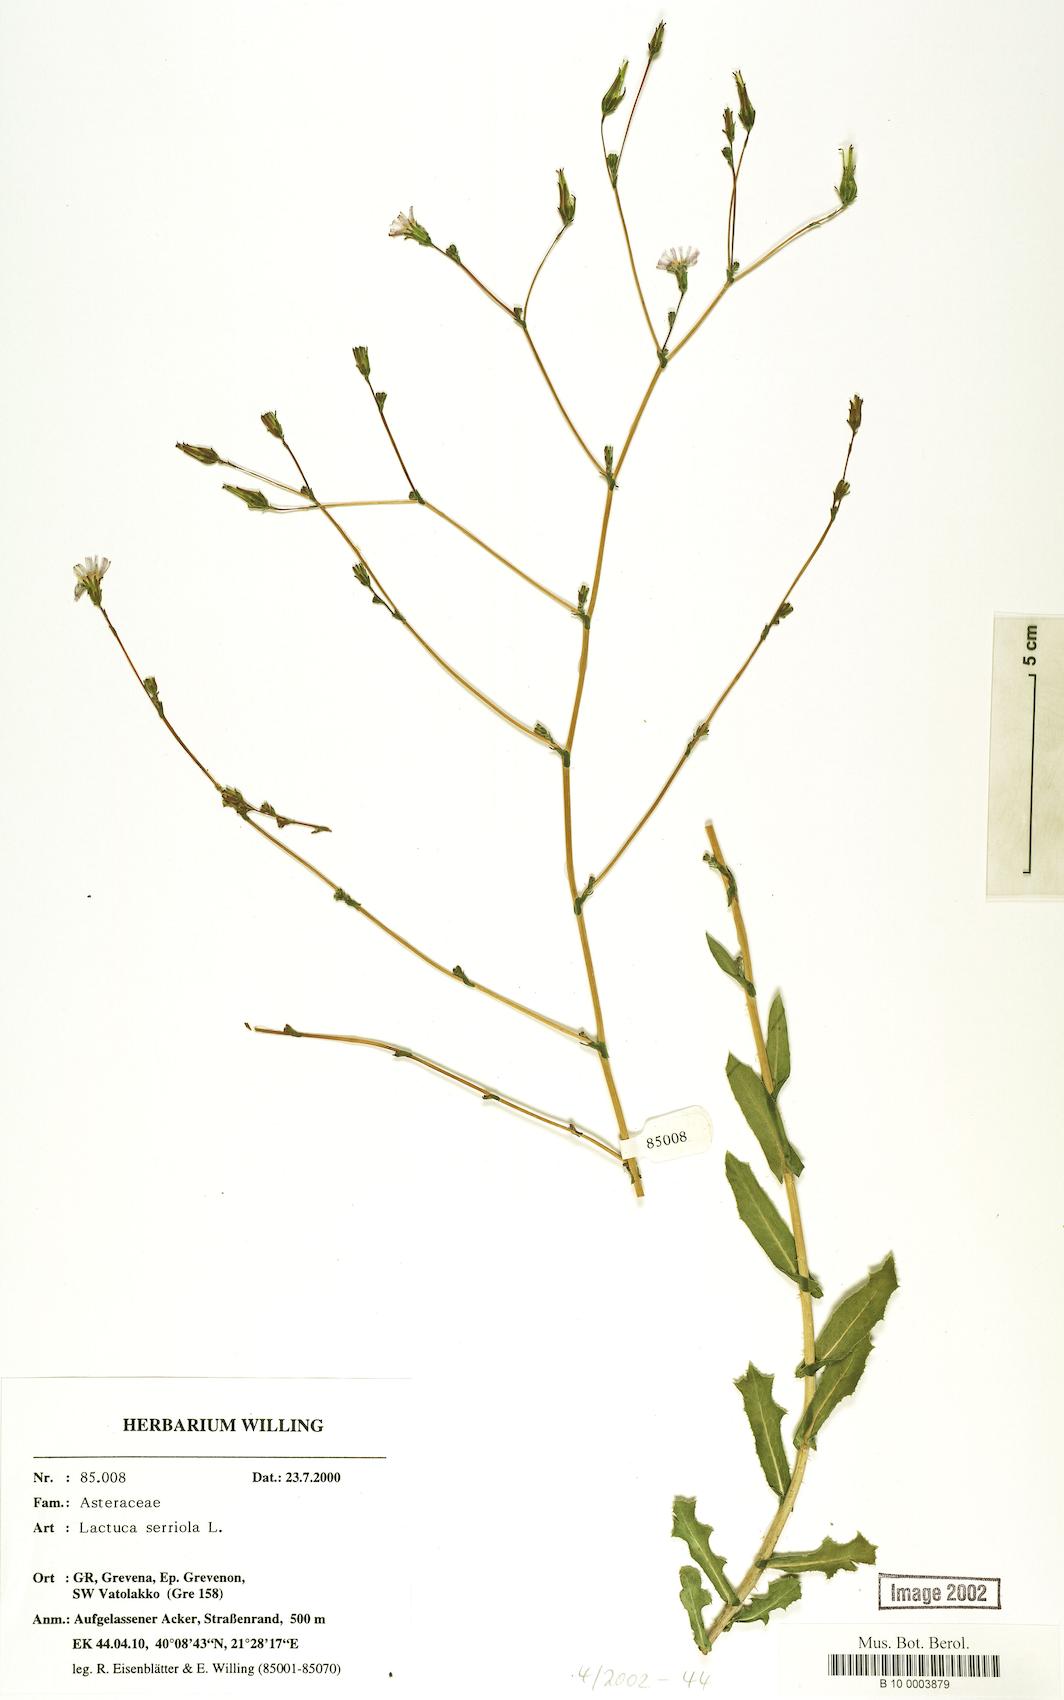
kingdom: Plantae
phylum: Tracheophyta
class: Magnoliopsida
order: Asterales
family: Asteraceae
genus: Lactuca
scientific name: Lactuca serriola
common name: Prickly lettuce
